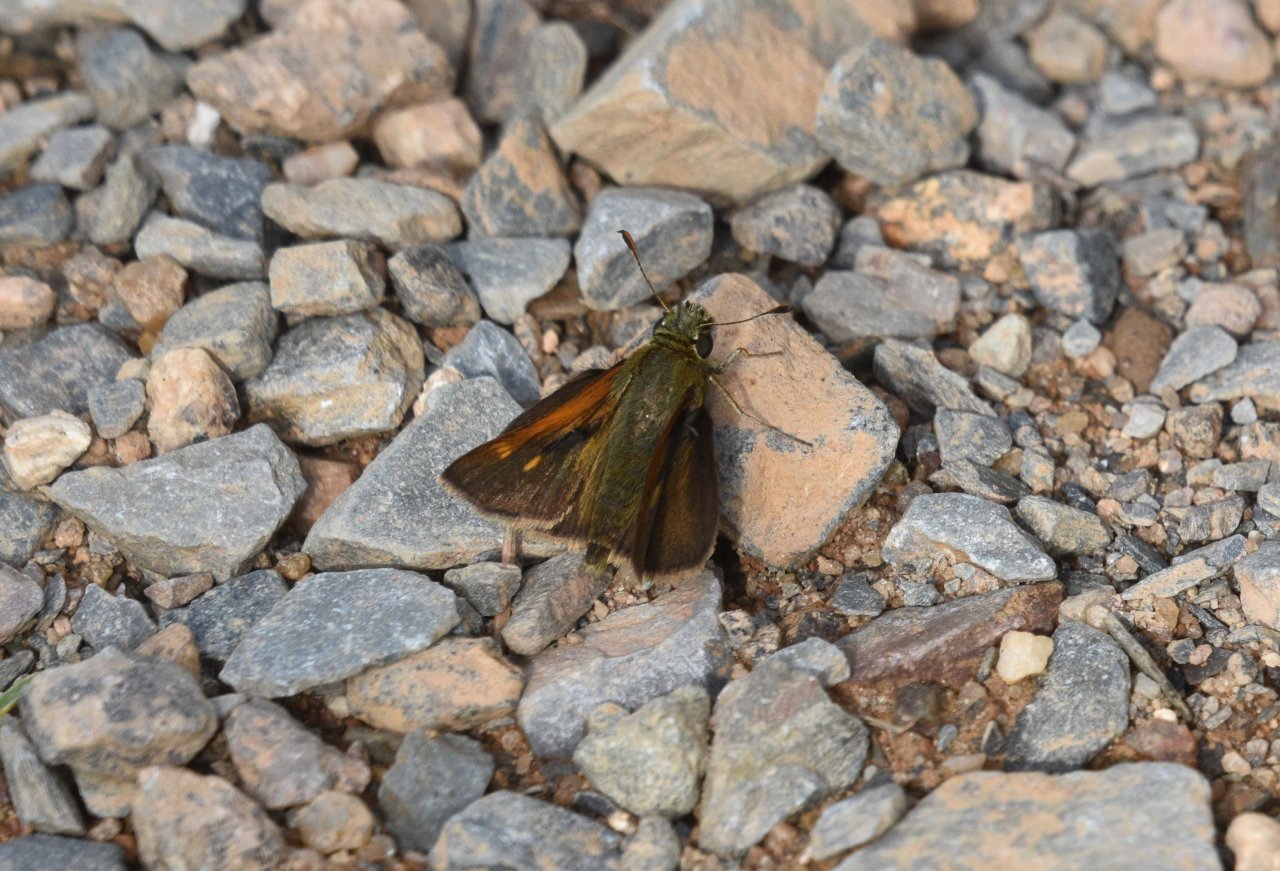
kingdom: Animalia
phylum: Arthropoda
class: Insecta
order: Lepidoptera
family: Hesperiidae
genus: Polites
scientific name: Polites themistocles
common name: Tawny-edged Skipper
